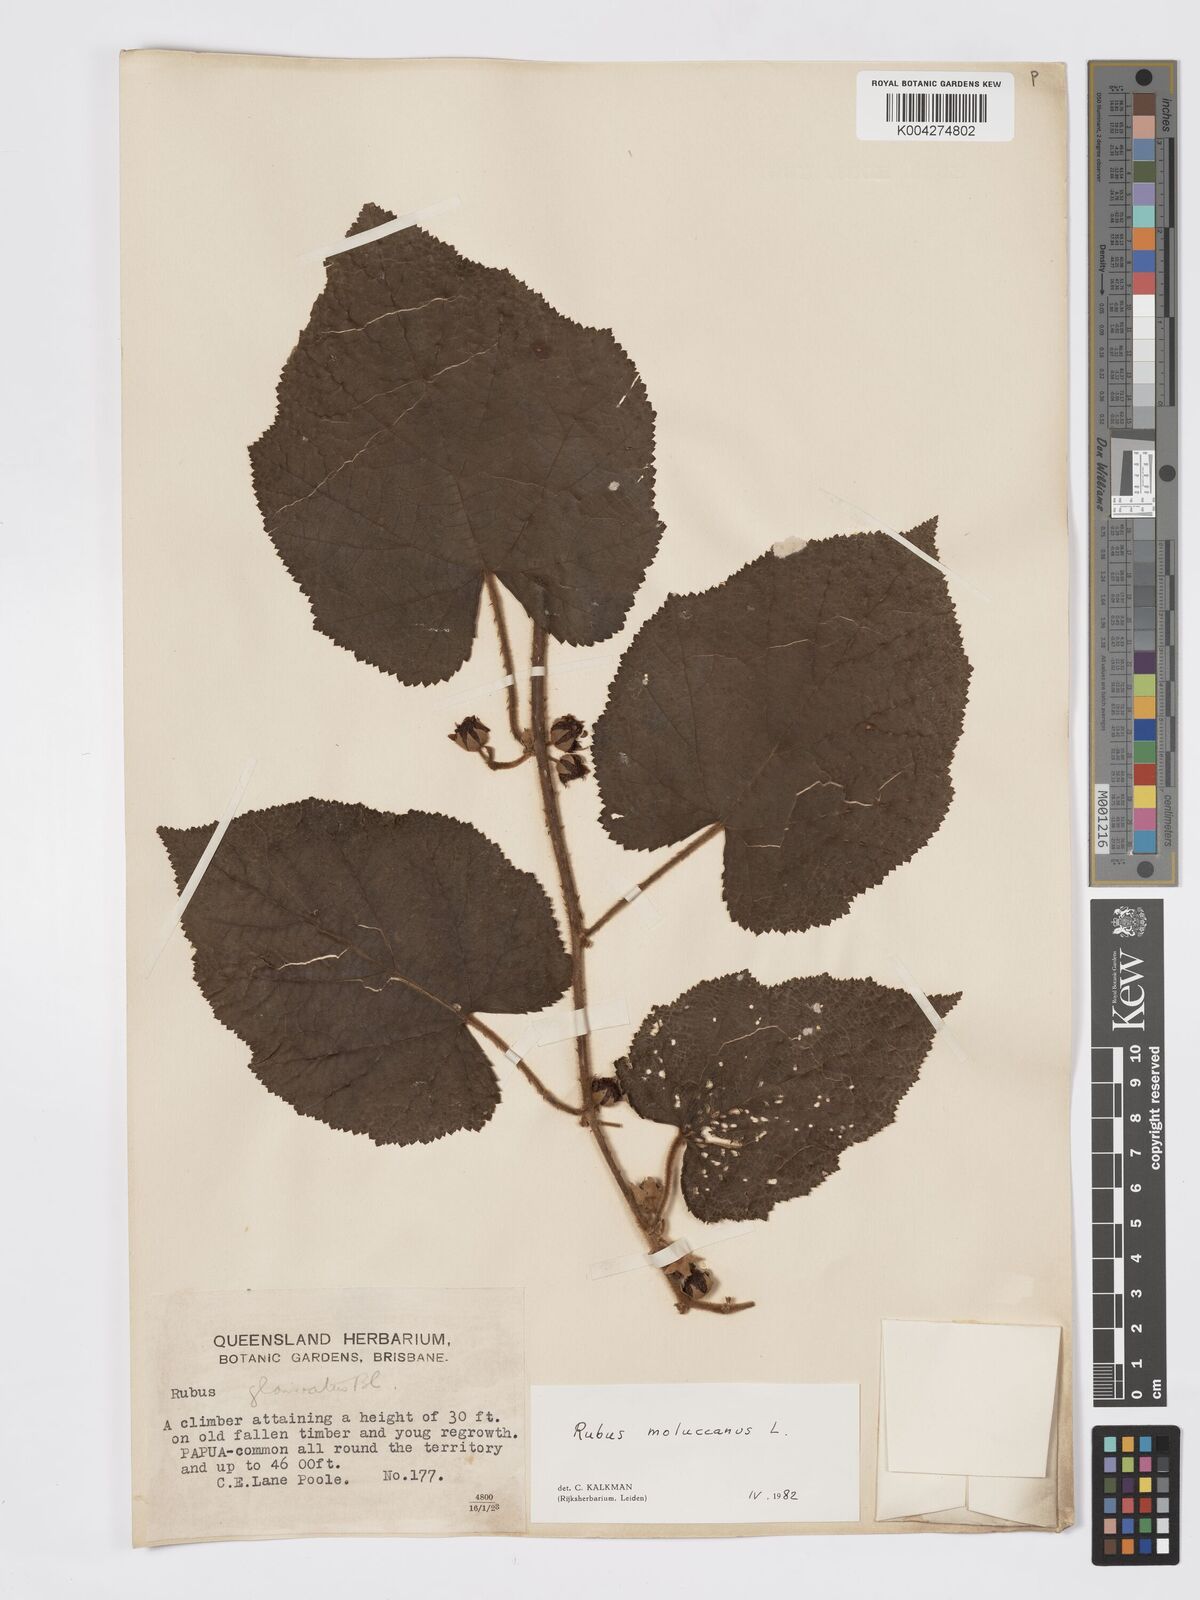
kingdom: Plantae
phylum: Tracheophyta
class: Magnoliopsida
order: Rosales
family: Rosaceae
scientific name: Rosaceae
